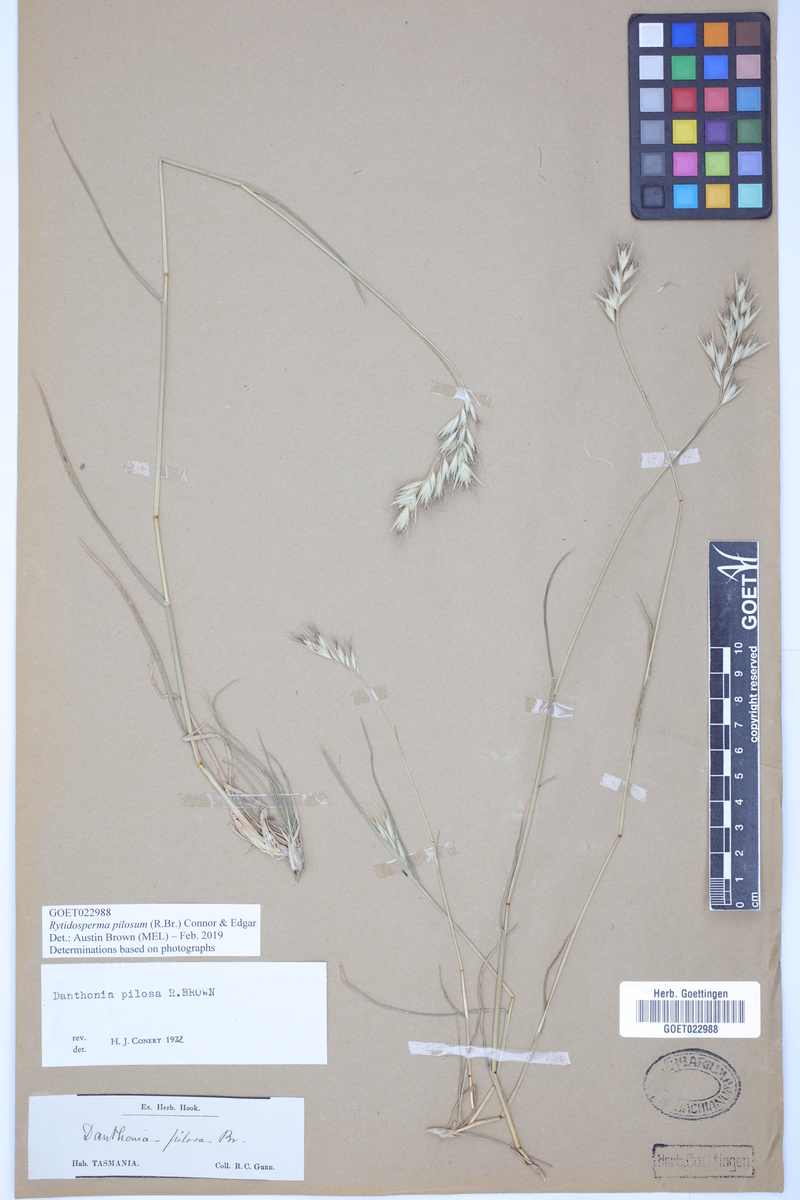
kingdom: Plantae
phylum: Tracheophyta
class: Liliopsida
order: Poales
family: Poaceae
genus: Rytidosperma
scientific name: Rytidosperma pilosum
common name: Hairy wallaby grass
